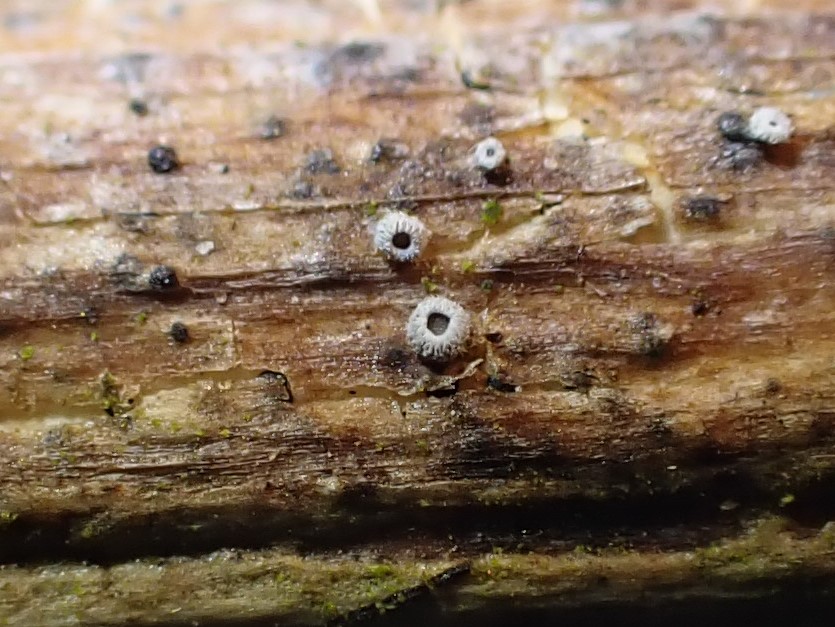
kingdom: Fungi
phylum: Basidiomycota
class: Agaricomycetes
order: Agaricales
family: Niaceae
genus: Lachnella
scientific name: Lachnella alboviolascens
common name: grå frynserede
